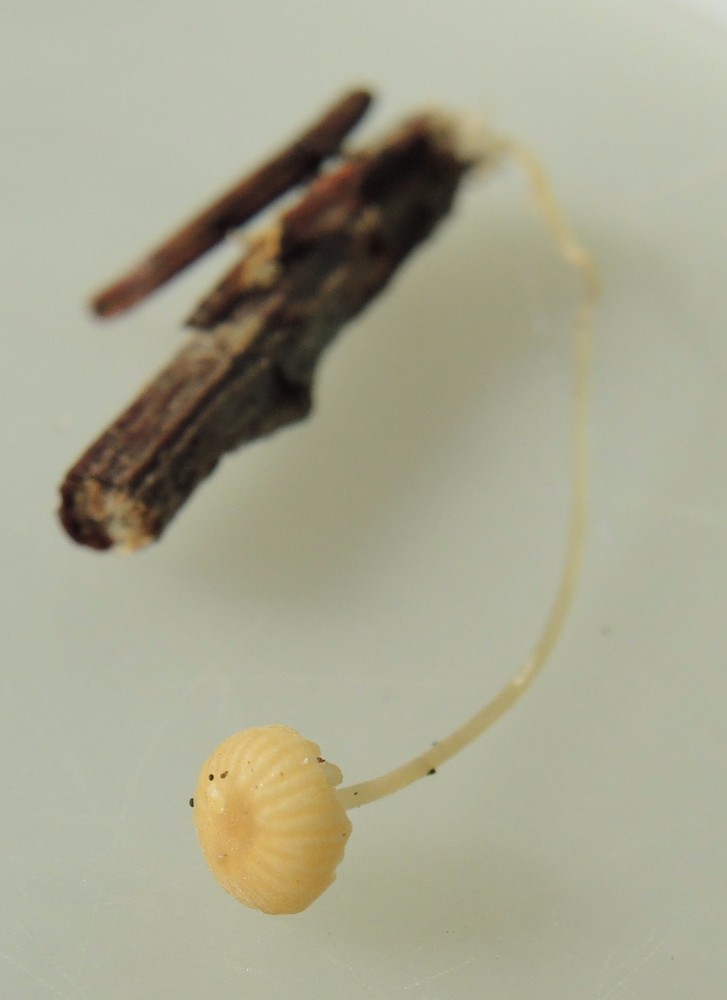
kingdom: Fungi
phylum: Basidiomycota
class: Agaricomycetes
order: Agaricales
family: Porotheleaceae
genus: Phloeomana
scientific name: Phloeomana speirea
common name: kvist-huesvamp
